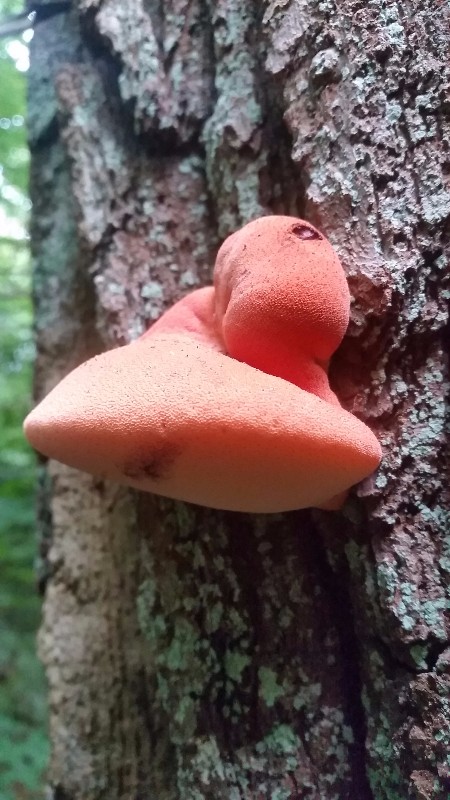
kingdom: Fungi
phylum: Basidiomycota
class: Agaricomycetes
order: Agaricales
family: Fistulinaceae
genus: Fistulina
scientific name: Fistulina hepatica
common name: oksetunge
